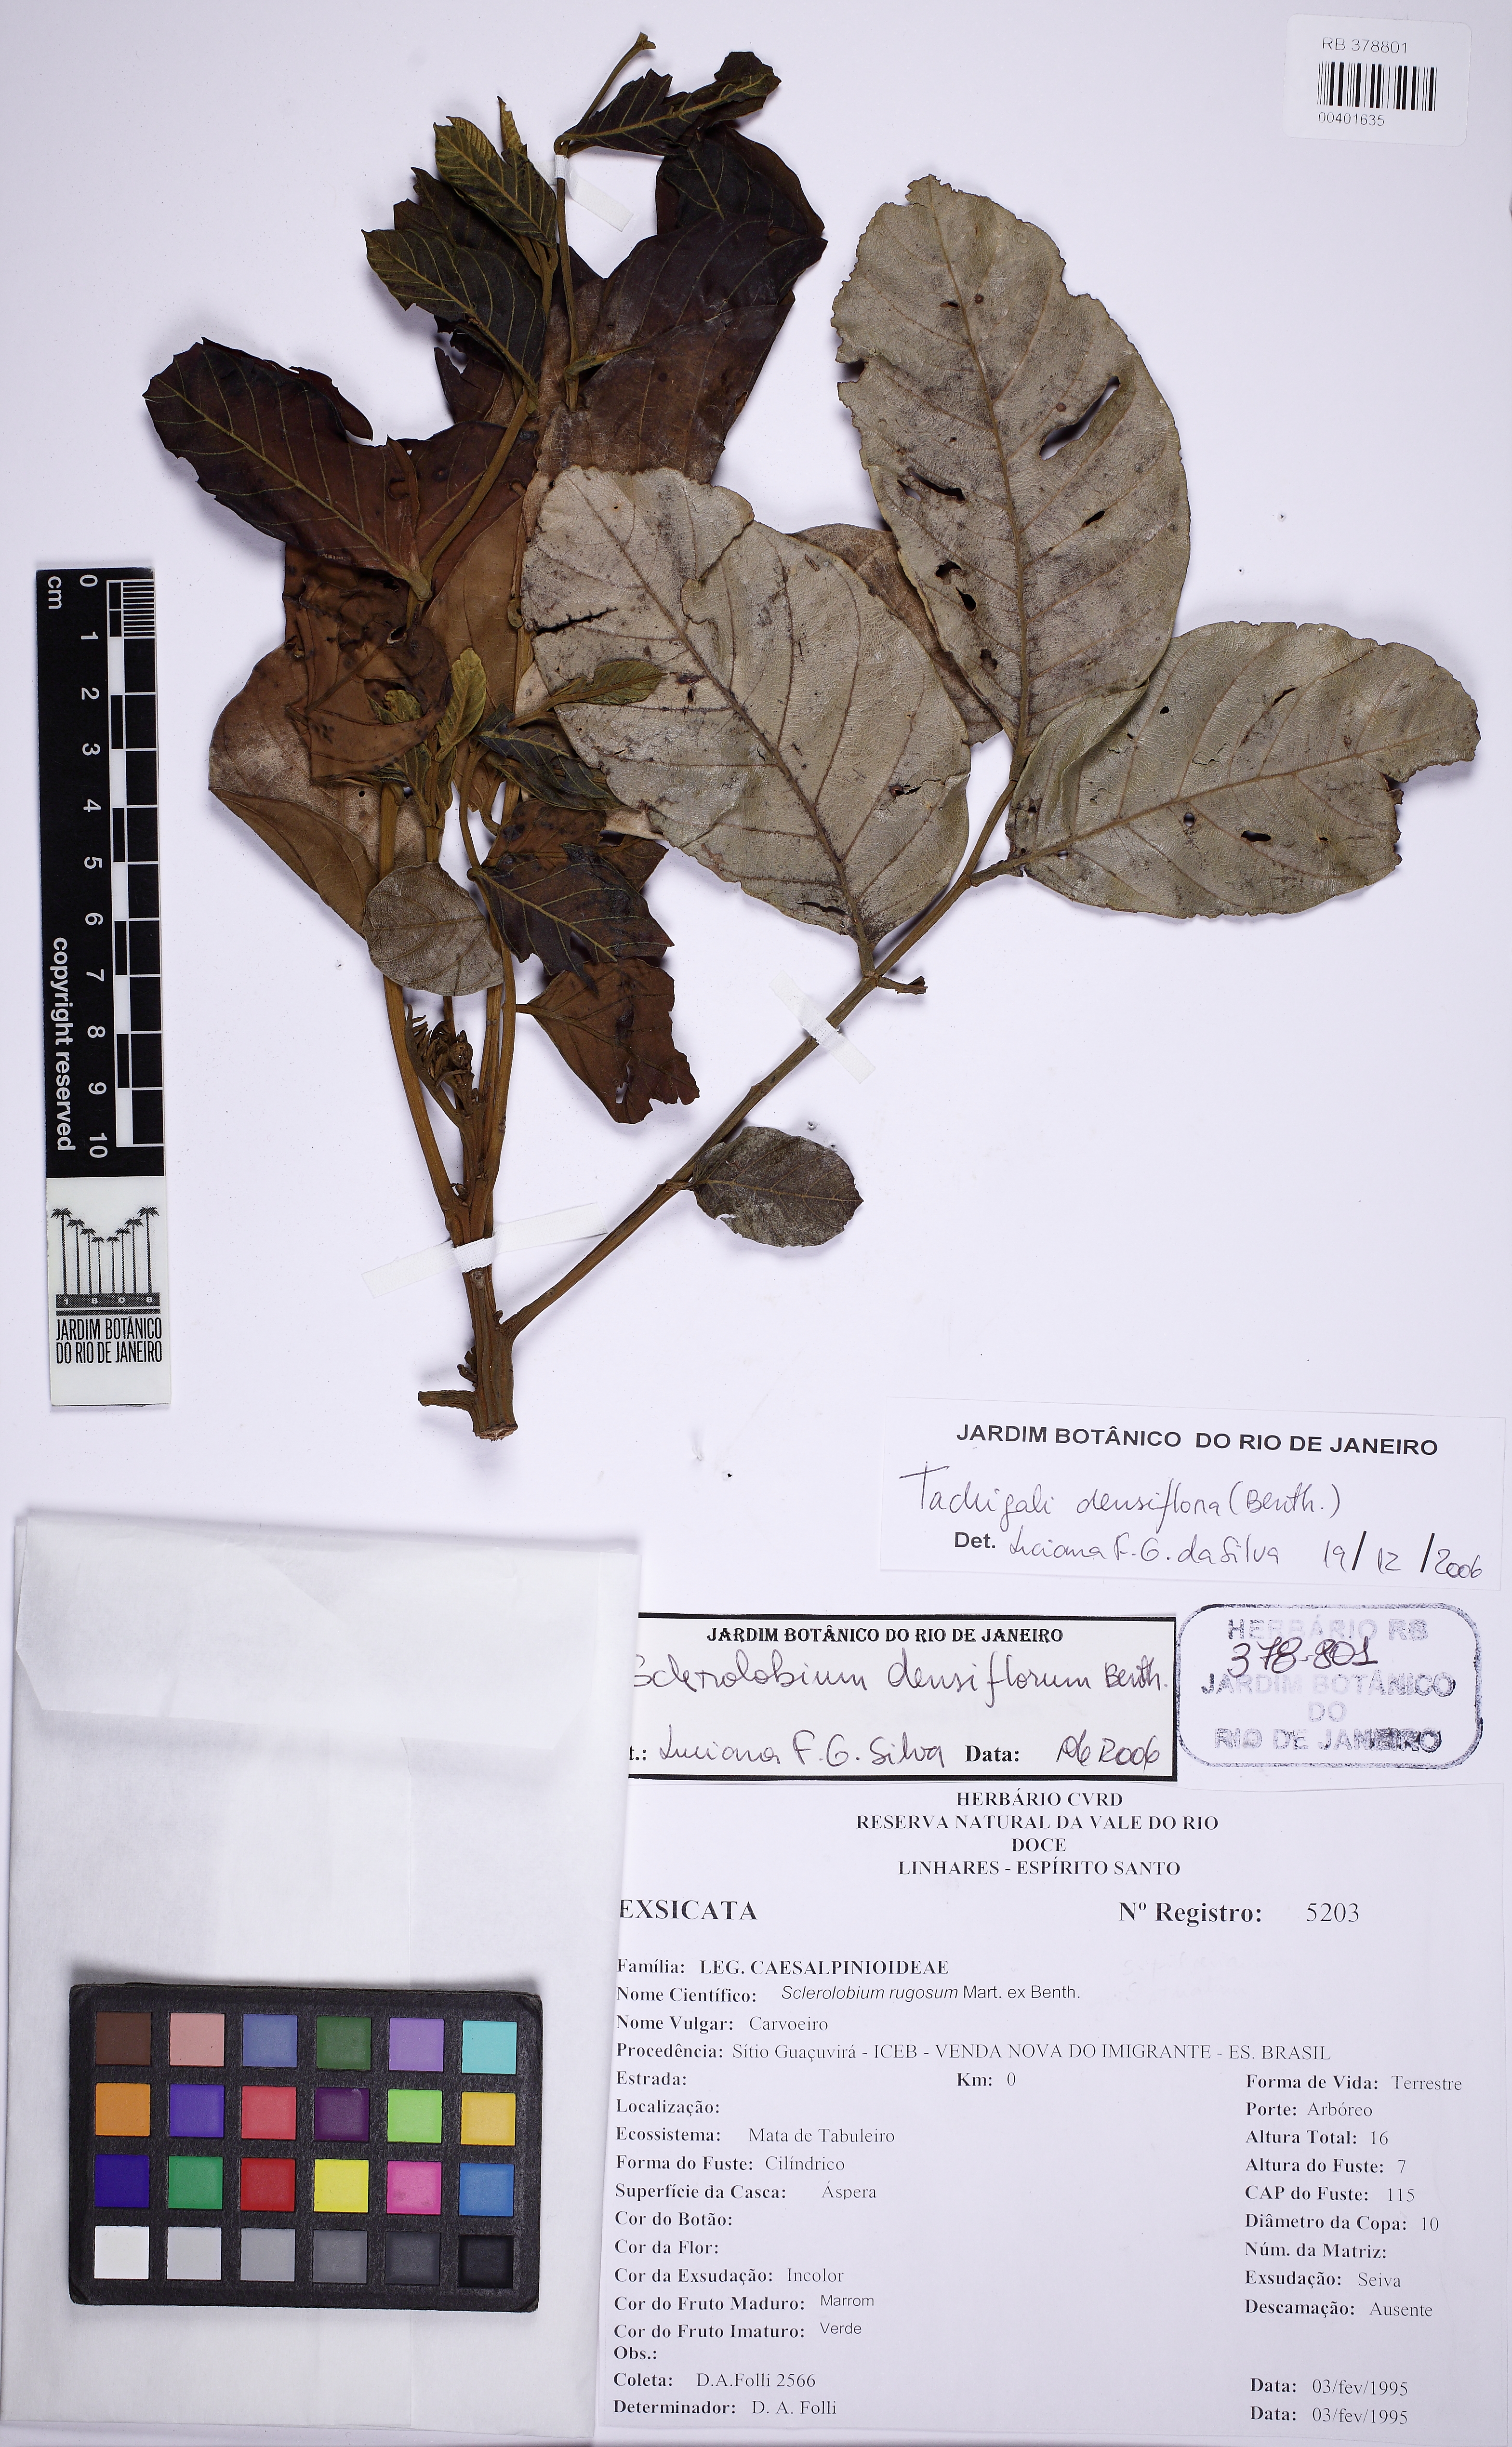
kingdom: Plantae
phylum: Tracheophyta
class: Magnoliopsida
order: Fabales
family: Fabaceae
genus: Tachigali
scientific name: Tachigali densiflora
